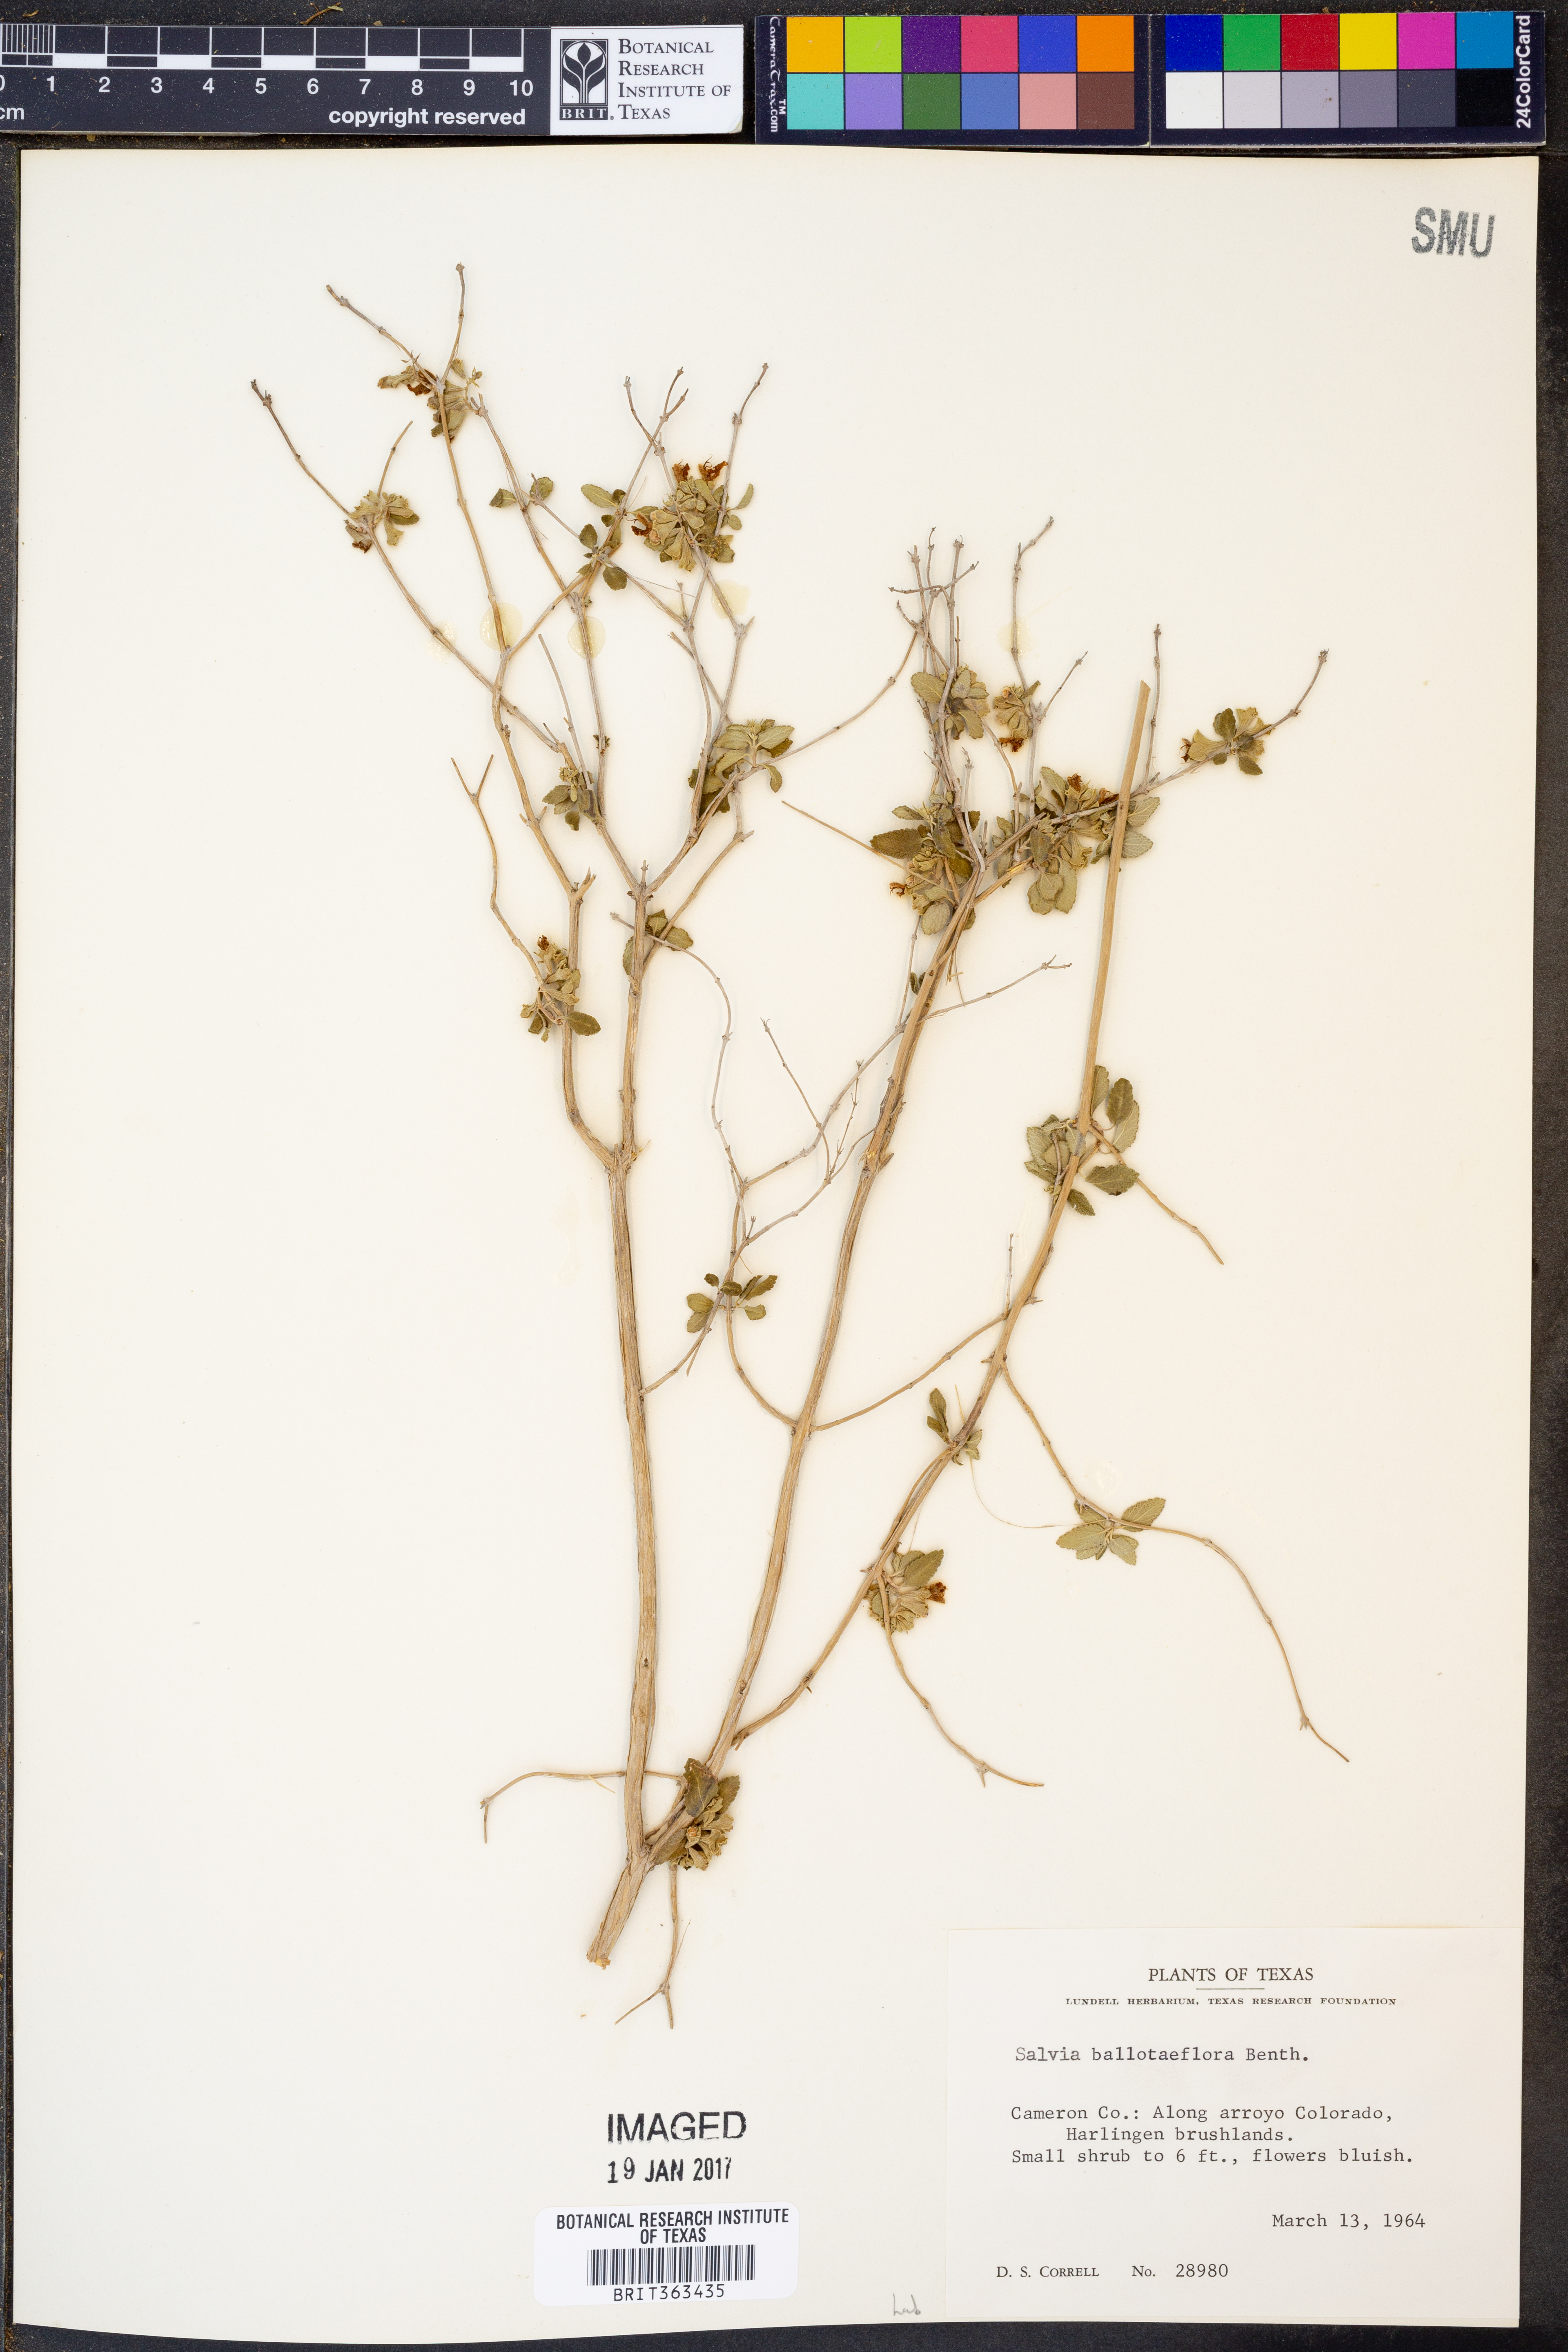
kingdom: Plantae
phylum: Tracheophyta
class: Magnoliopsida
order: Lamiales
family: Lamiaceae
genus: Salvia
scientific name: Salvia ballotiflora
